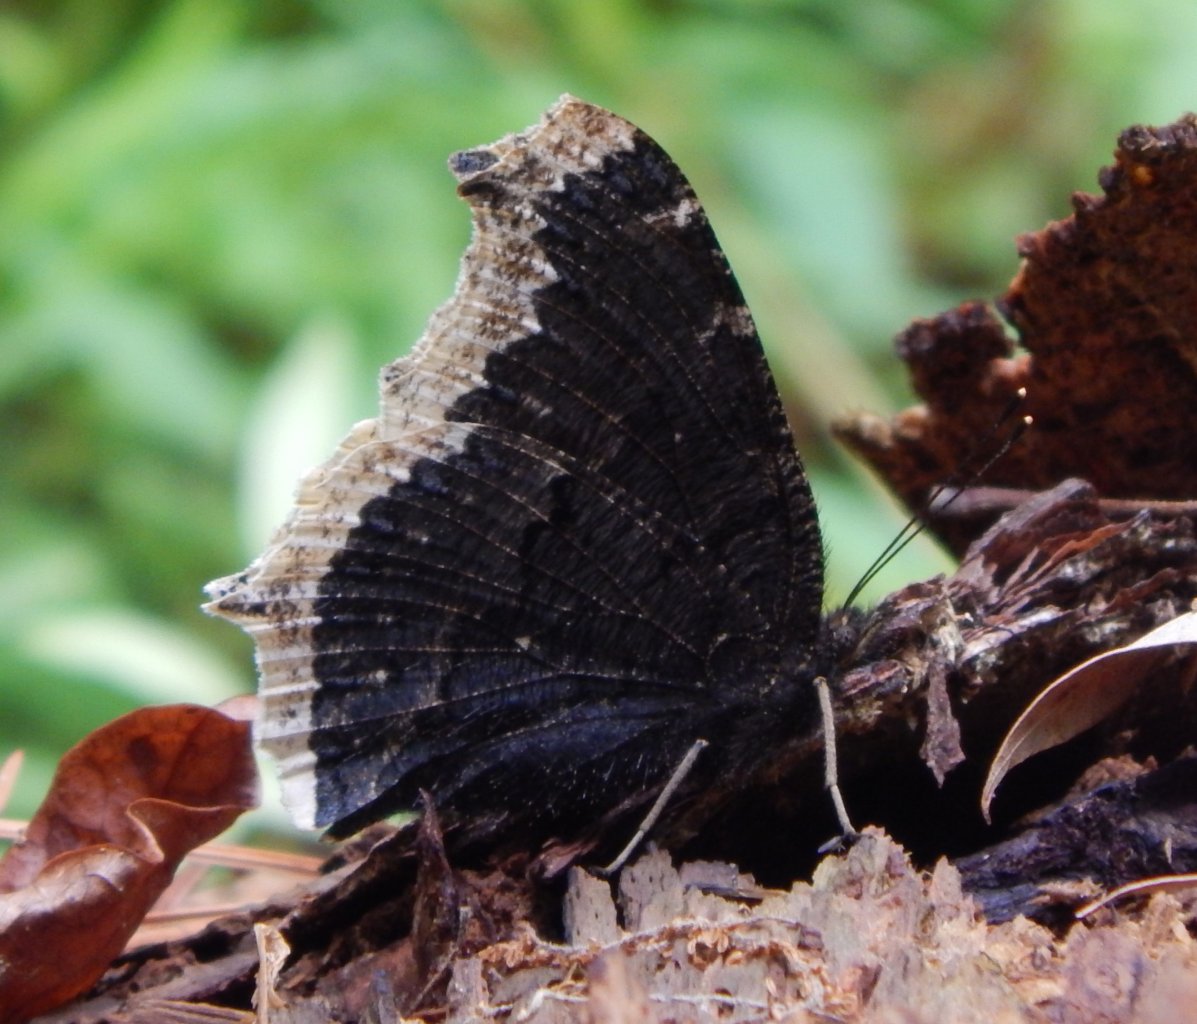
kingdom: Animalia
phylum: Arthropoda
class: Insecta
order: Lepidoptera
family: Nymphalidae
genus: Nymphalis
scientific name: Nymphalis antiopa
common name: Mourning Cloak
